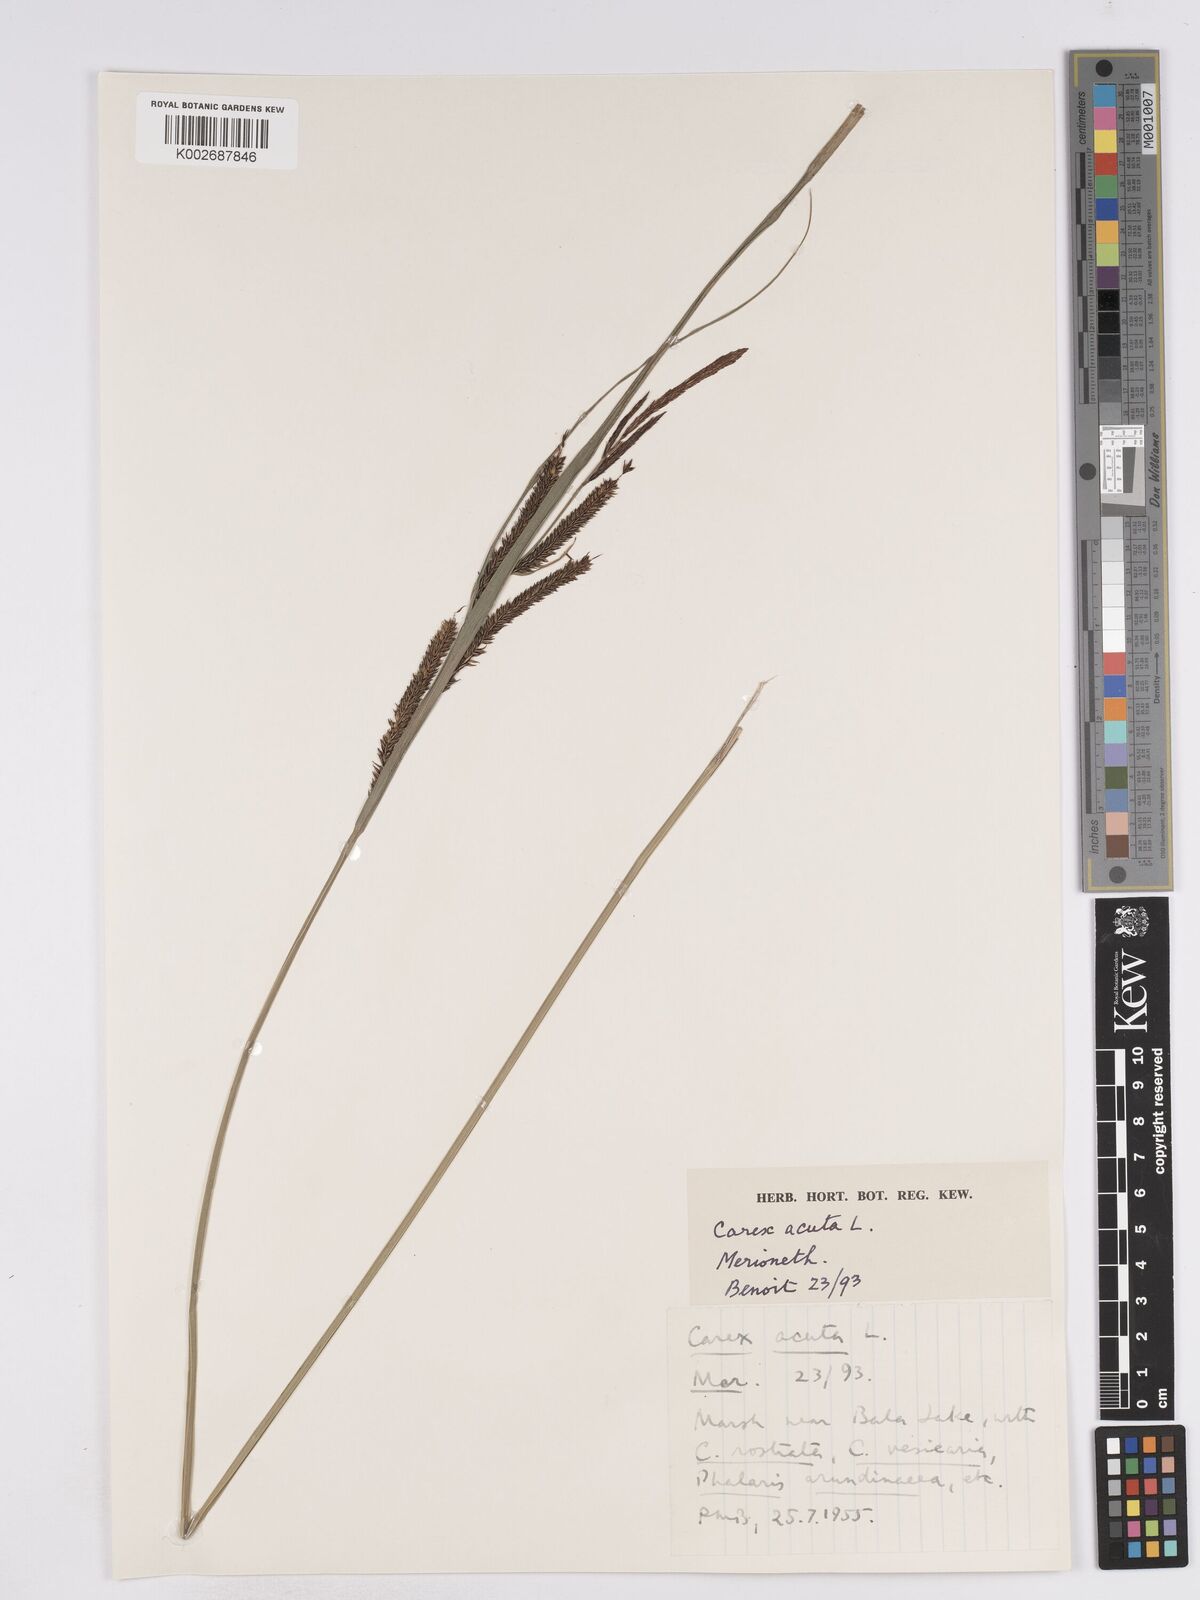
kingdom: Plantae
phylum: Tracheophyta
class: Liliopsida
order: Poales
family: Cyperaceae
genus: Carex
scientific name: Carex acuta
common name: Slender tufted-sedge
